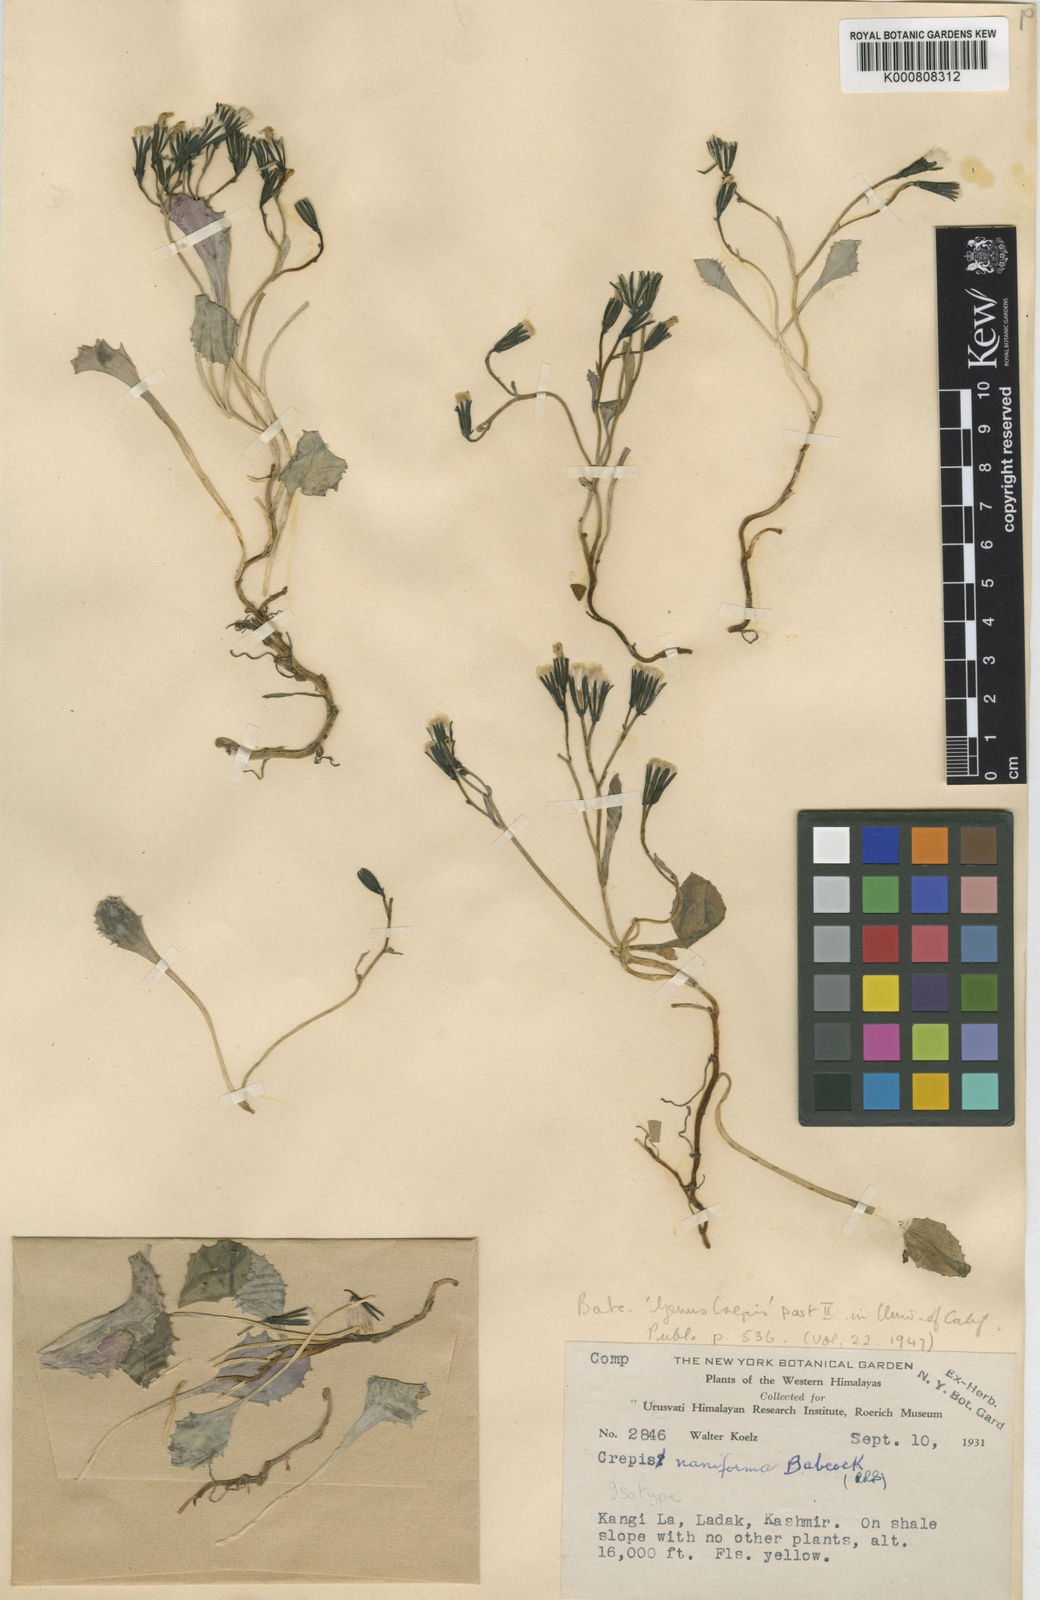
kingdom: Plantae
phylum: Tracheophyta
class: Magnoliopsida
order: Asterales
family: Asteraceae
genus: Askellia
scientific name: Askellia naniformis
